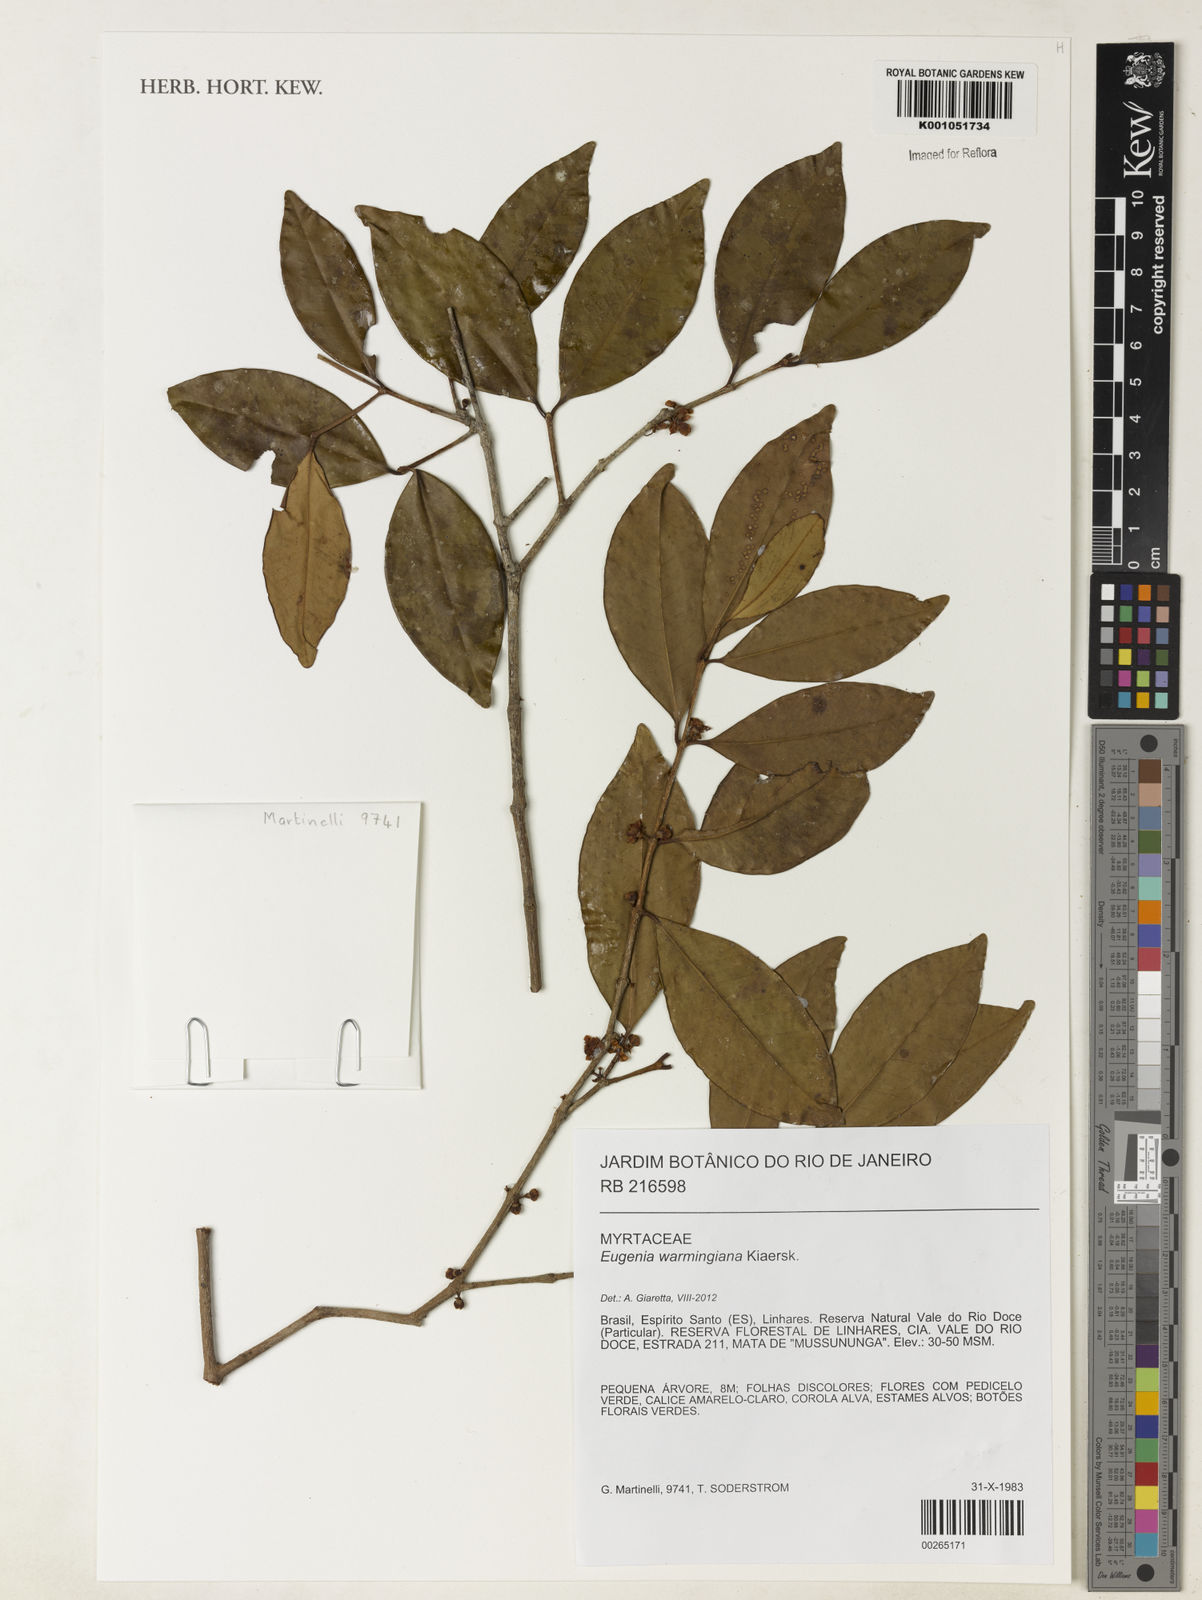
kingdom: Plantae
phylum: Tracheophyta
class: Magnoliopsida
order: Myrtales
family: Myrtaceae
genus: Eugenia
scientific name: Eugenia warmingiana
